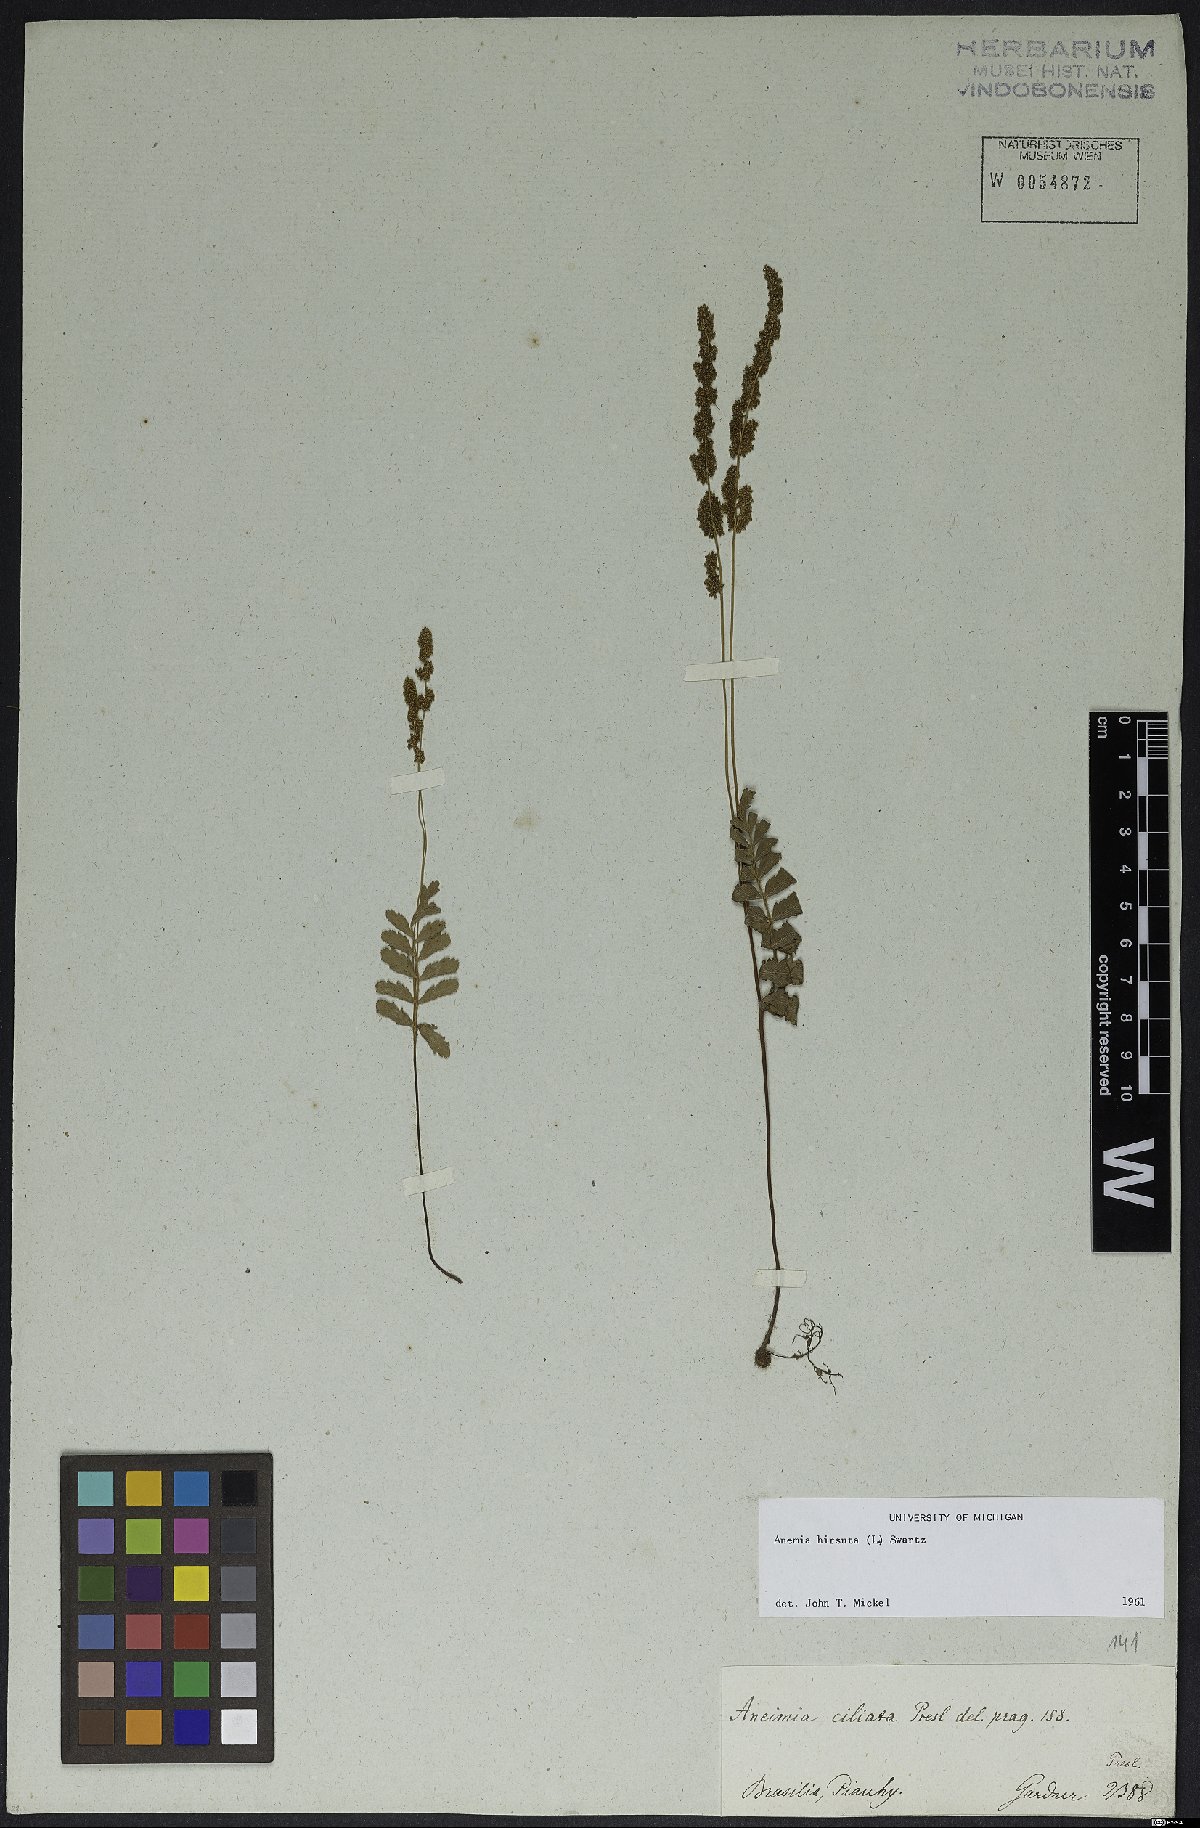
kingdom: Plantae
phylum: Tracheophyta
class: Polypodiopsida
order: Schizaeales
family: Anemiaceae
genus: Anemia
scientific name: Anemia hirsuta
